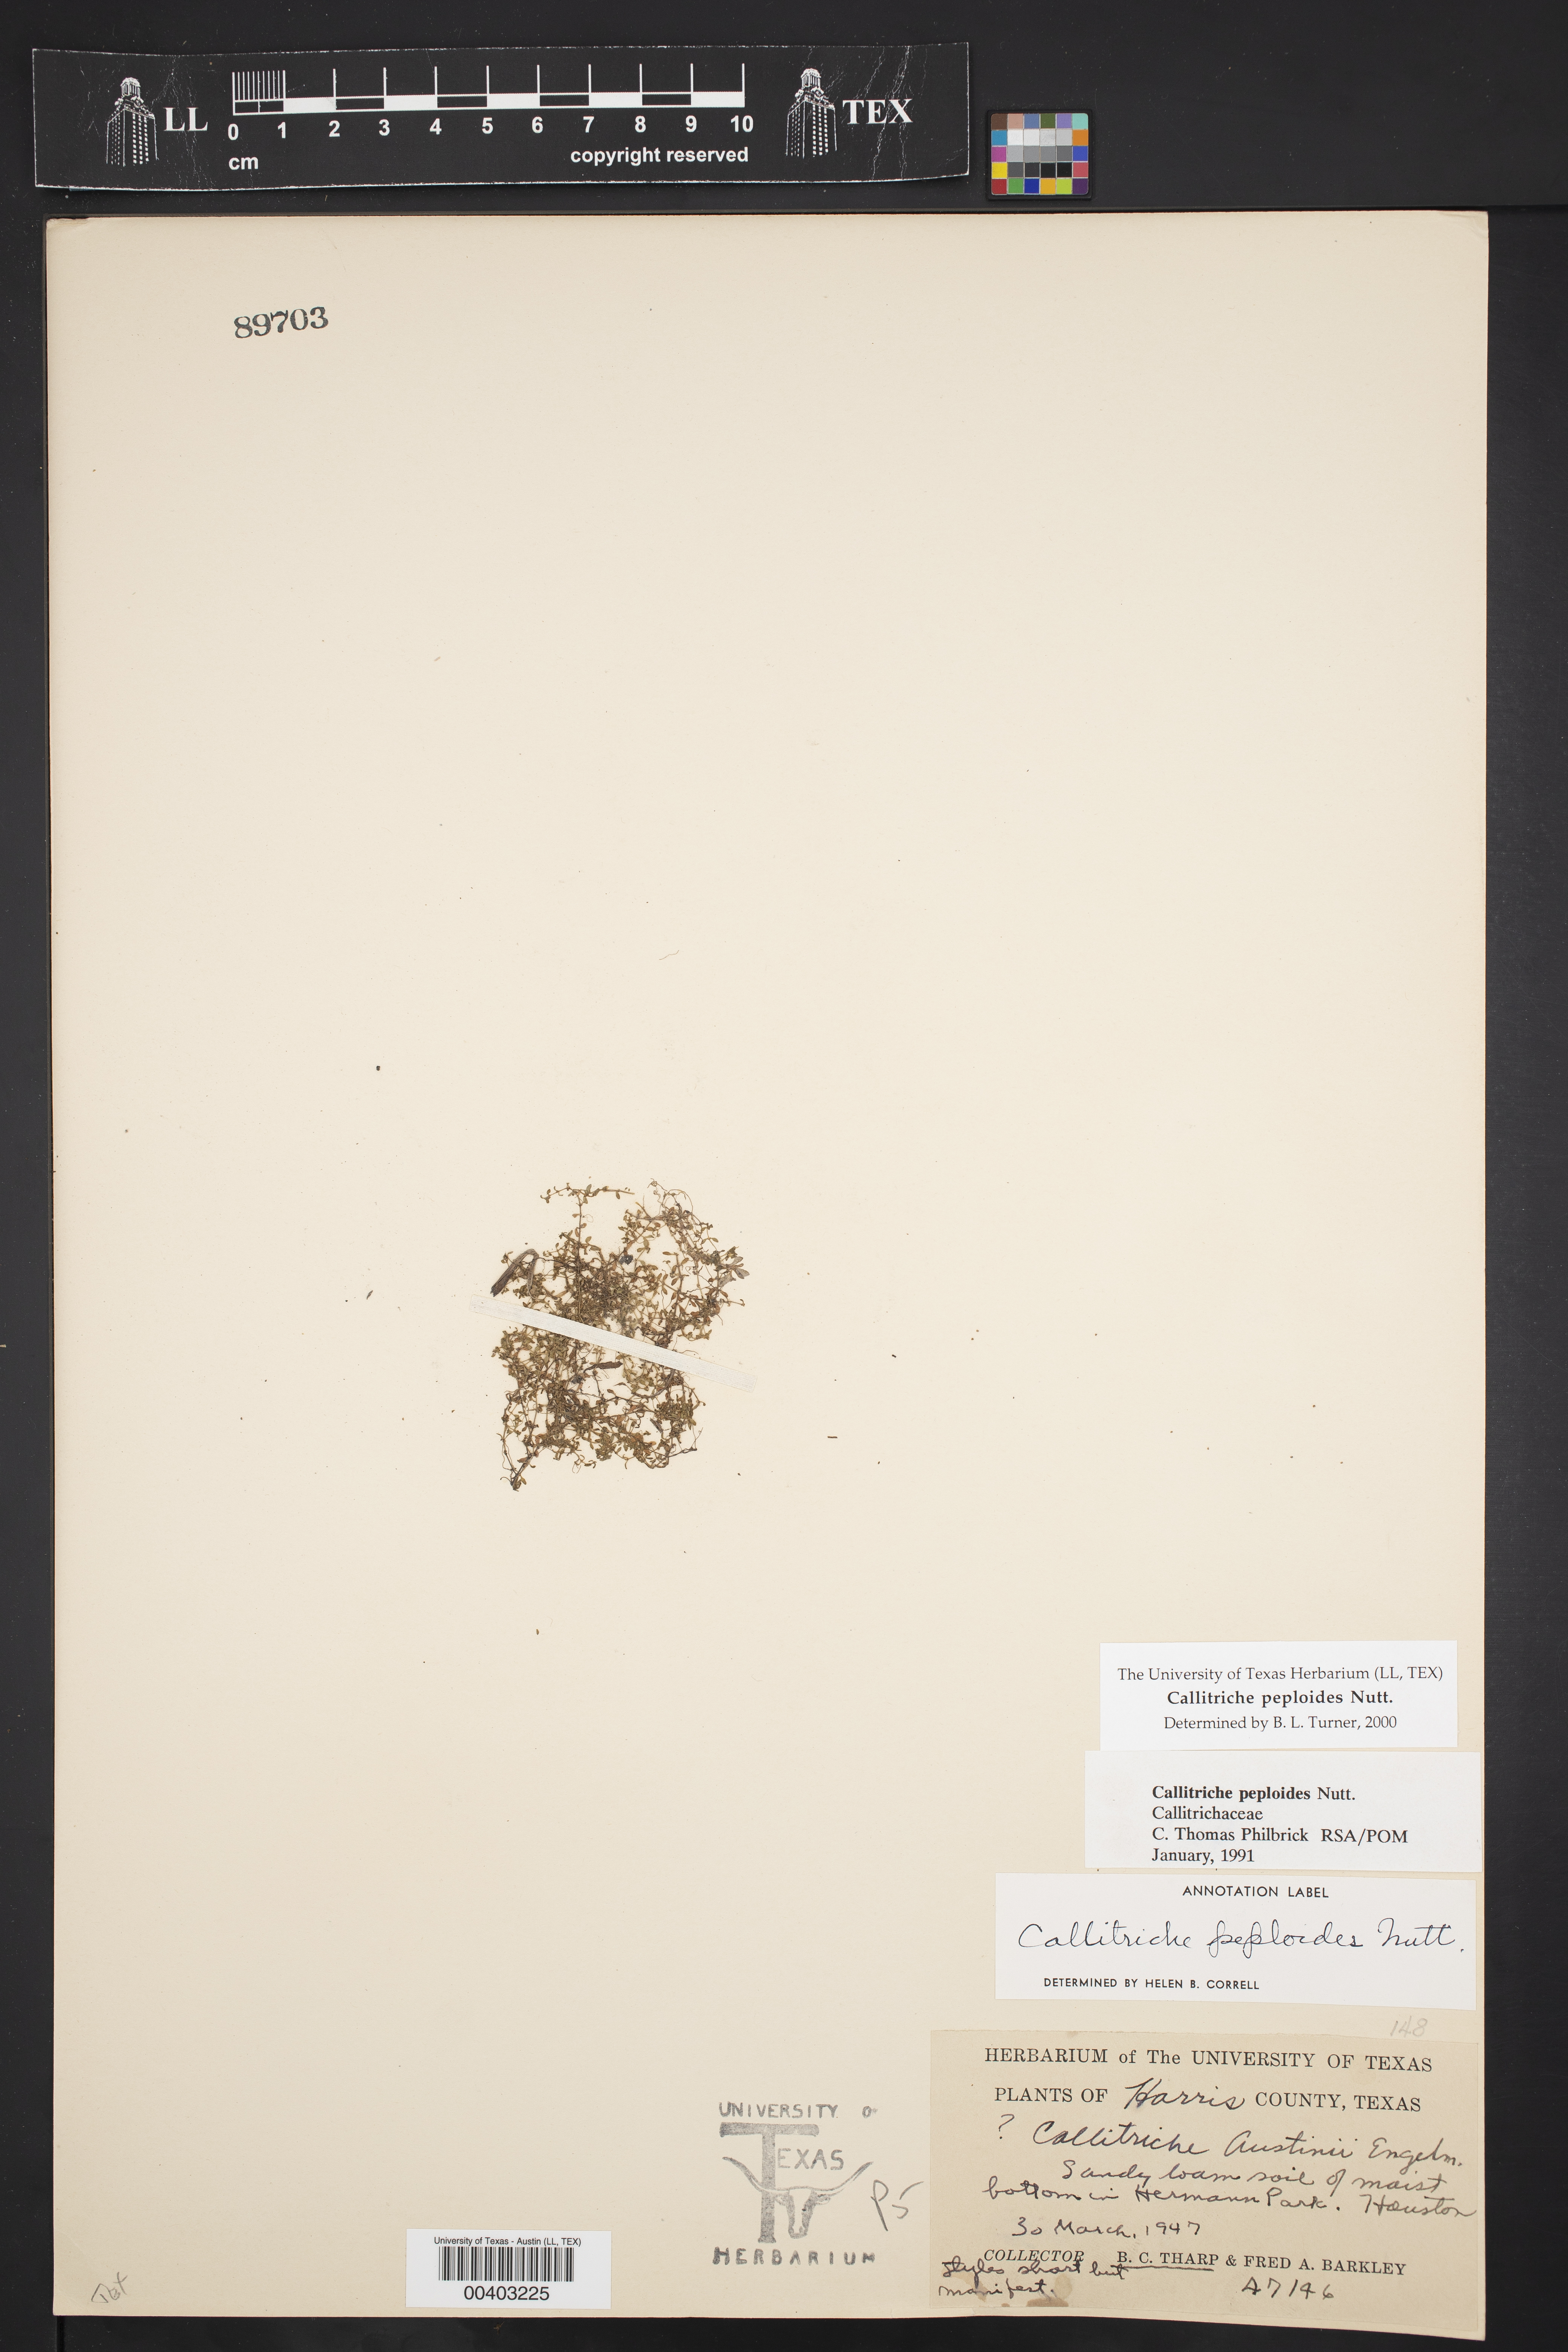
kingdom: Plantae
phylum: Tracheophyta
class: Magnoliopsida
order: Lamiales
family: Plantaginaceae
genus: Callitriche
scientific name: Callitriche peploides
